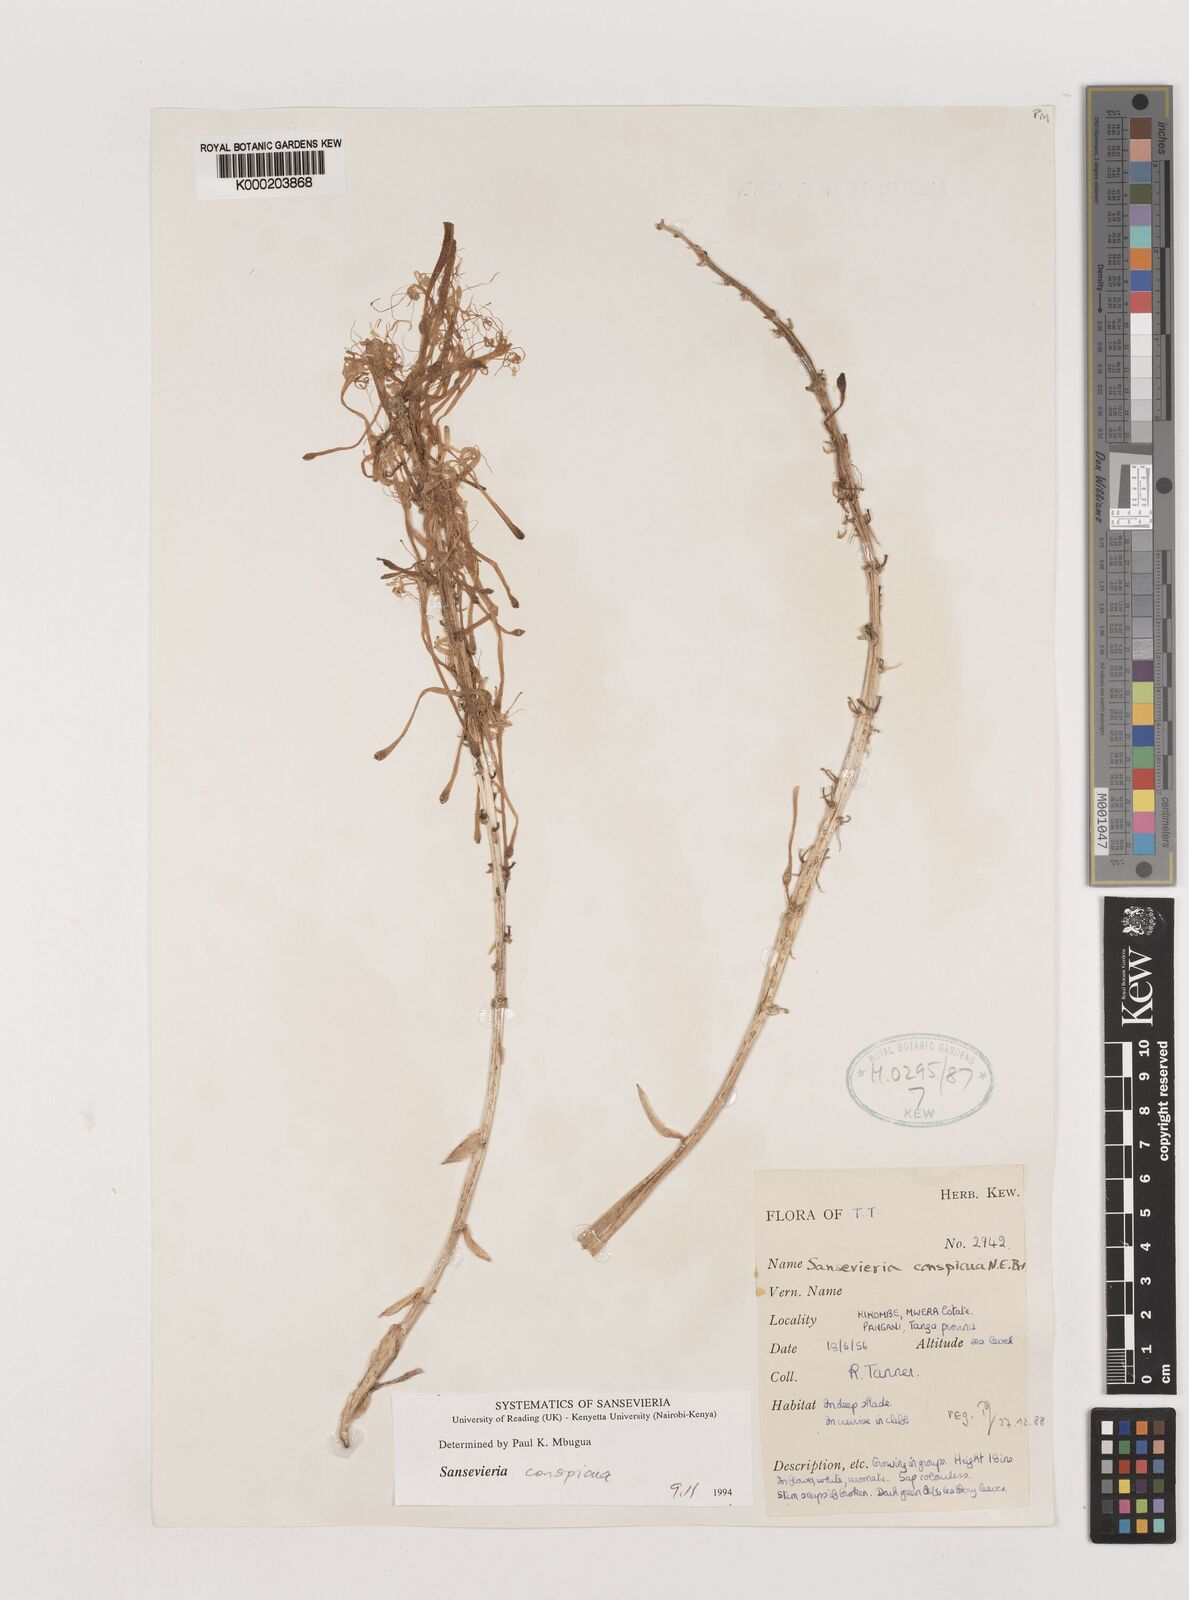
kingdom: Plantae
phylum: Tracheophyta
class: Liliopsida
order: Asparagales
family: Asparagaceae
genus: Dracaena
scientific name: Dracaena conspicua
